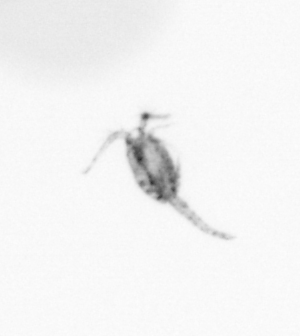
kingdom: Animalia
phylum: Arthropoda
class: Copepoda
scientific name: Copepoda
